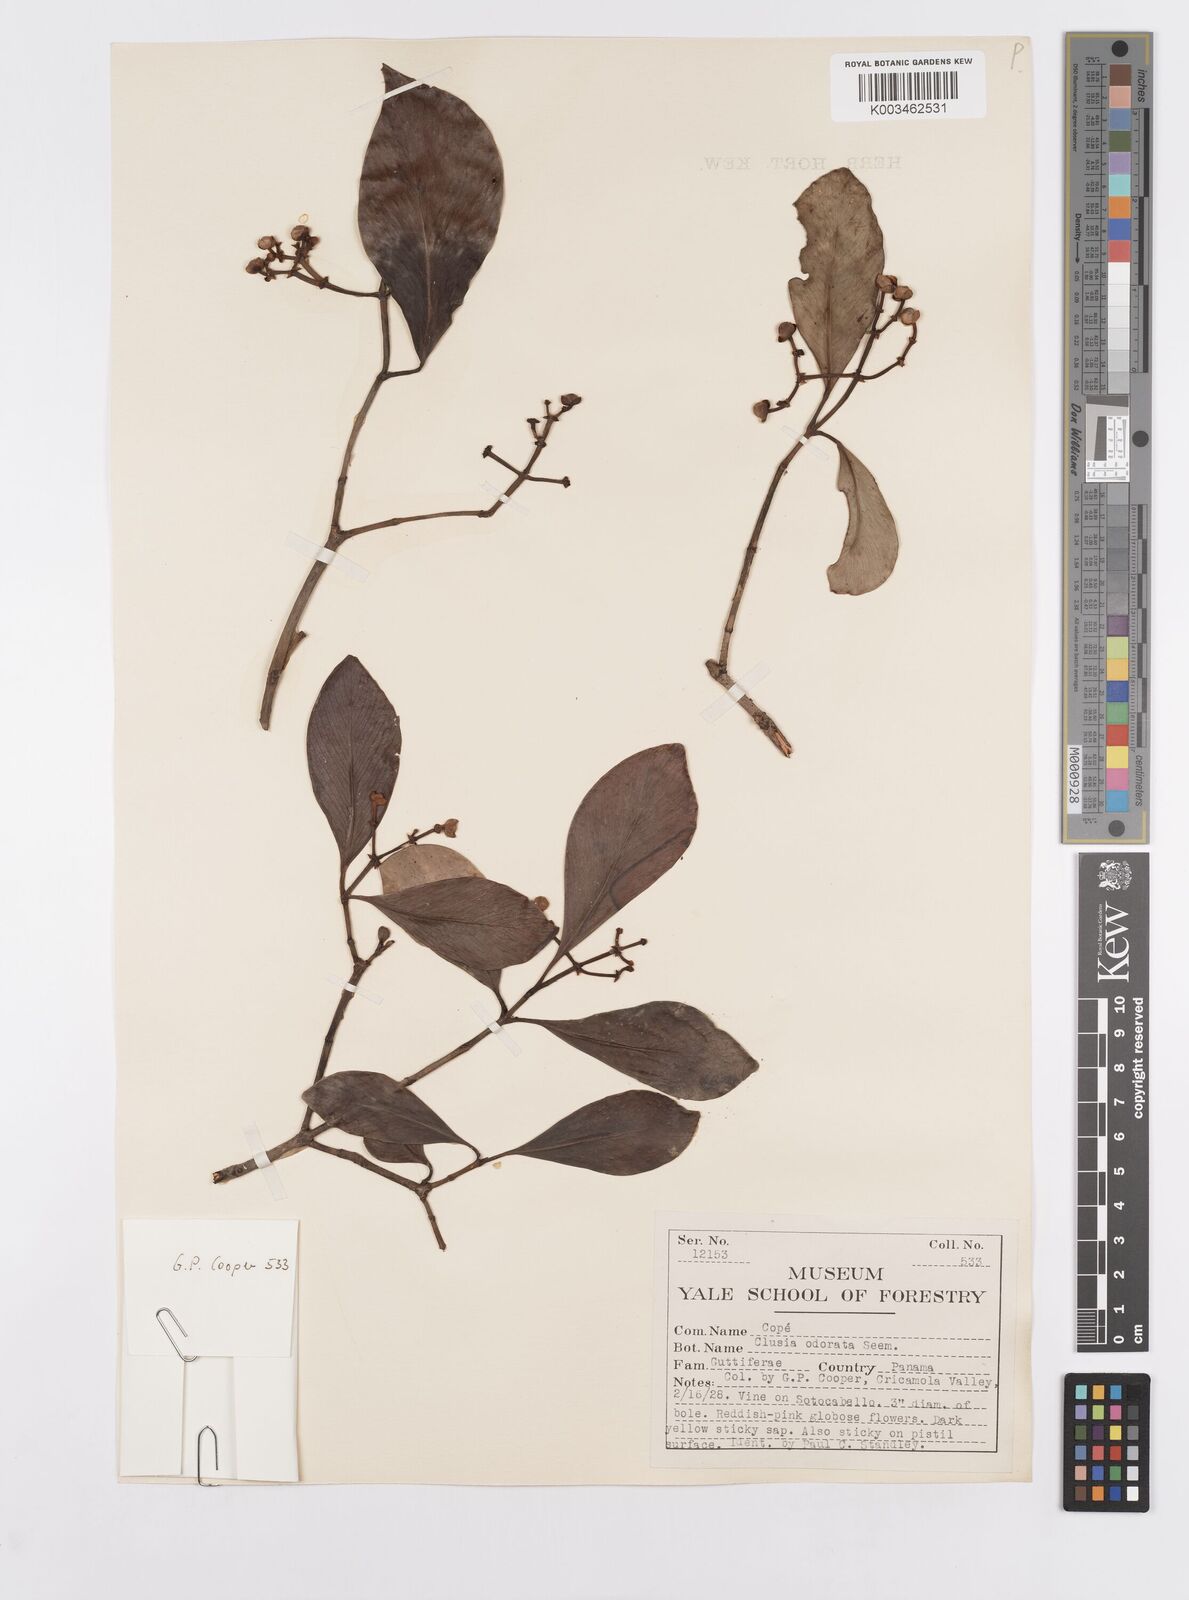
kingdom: Plantae
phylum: Tracheophyta
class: Magnoliopsida
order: Malpighiales
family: Clusiaceae
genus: Clusia
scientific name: Clusia minor
